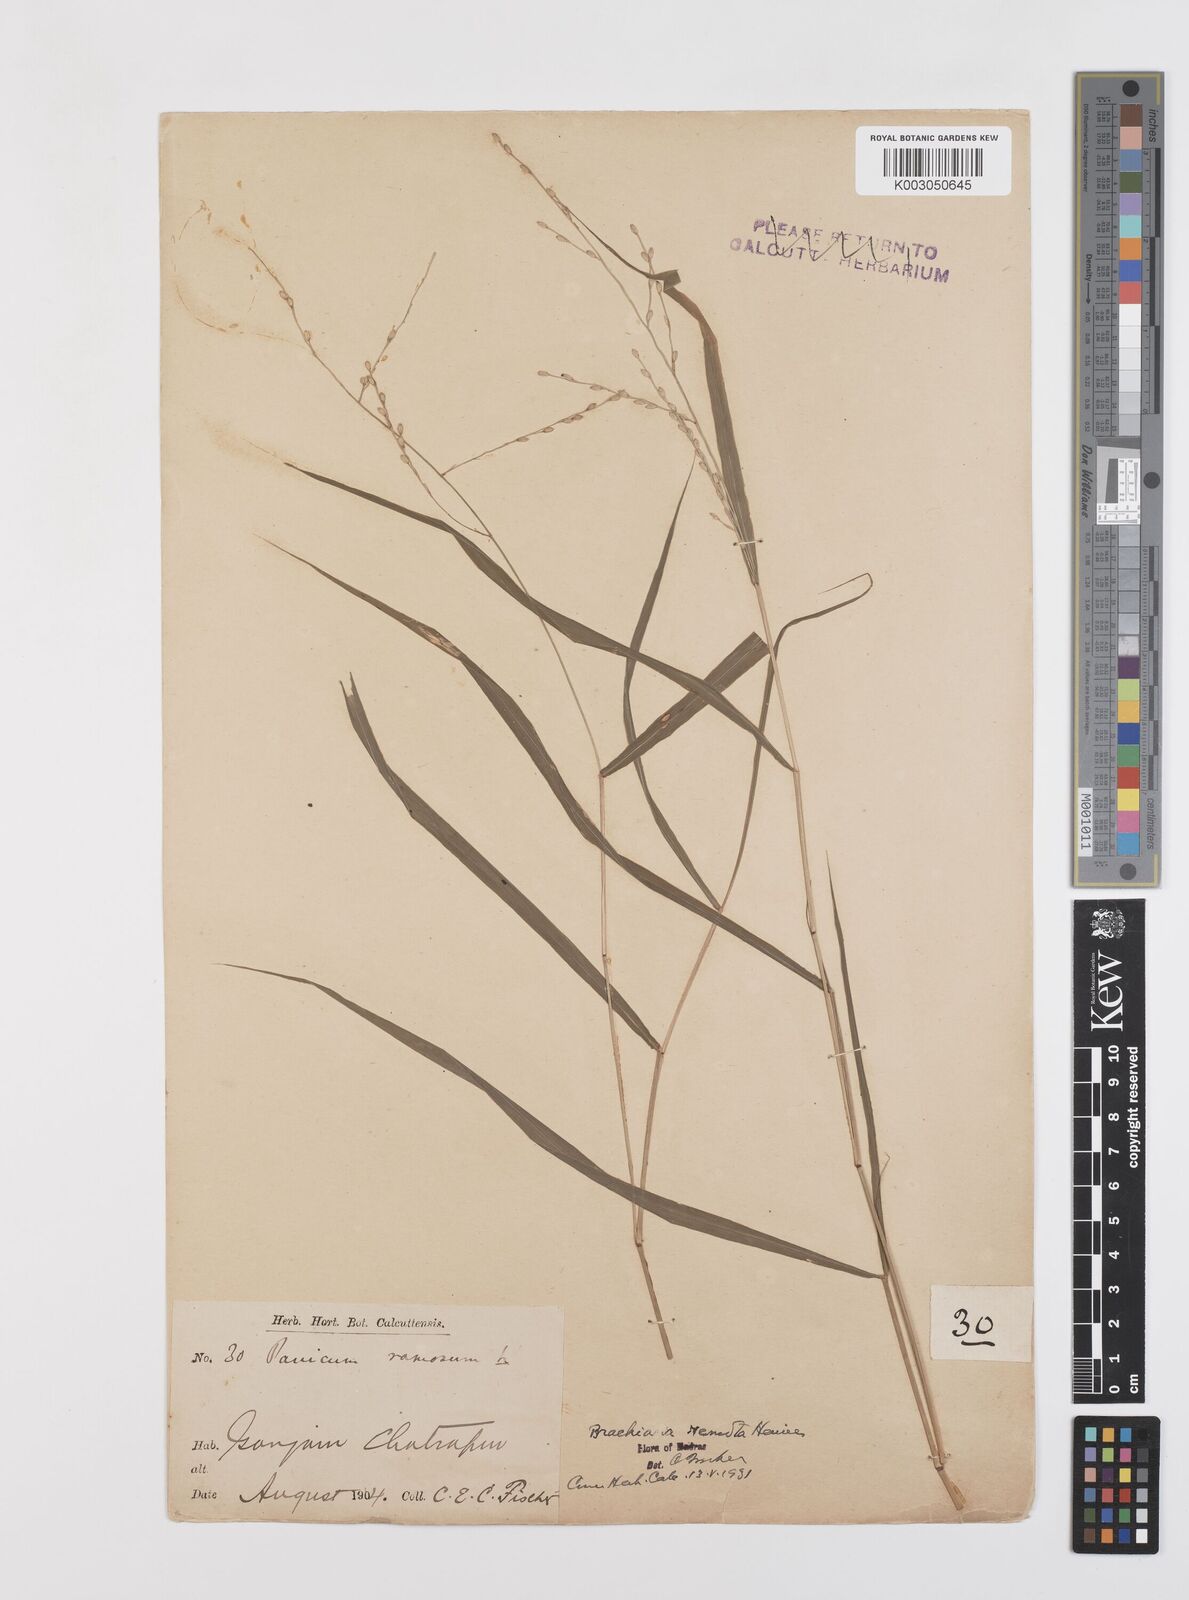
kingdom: Plantae
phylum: Tracheophyta
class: Liliopsida
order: Poales
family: Poaceae
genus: Urochloa
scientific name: Urochloa Brachiaria remota
